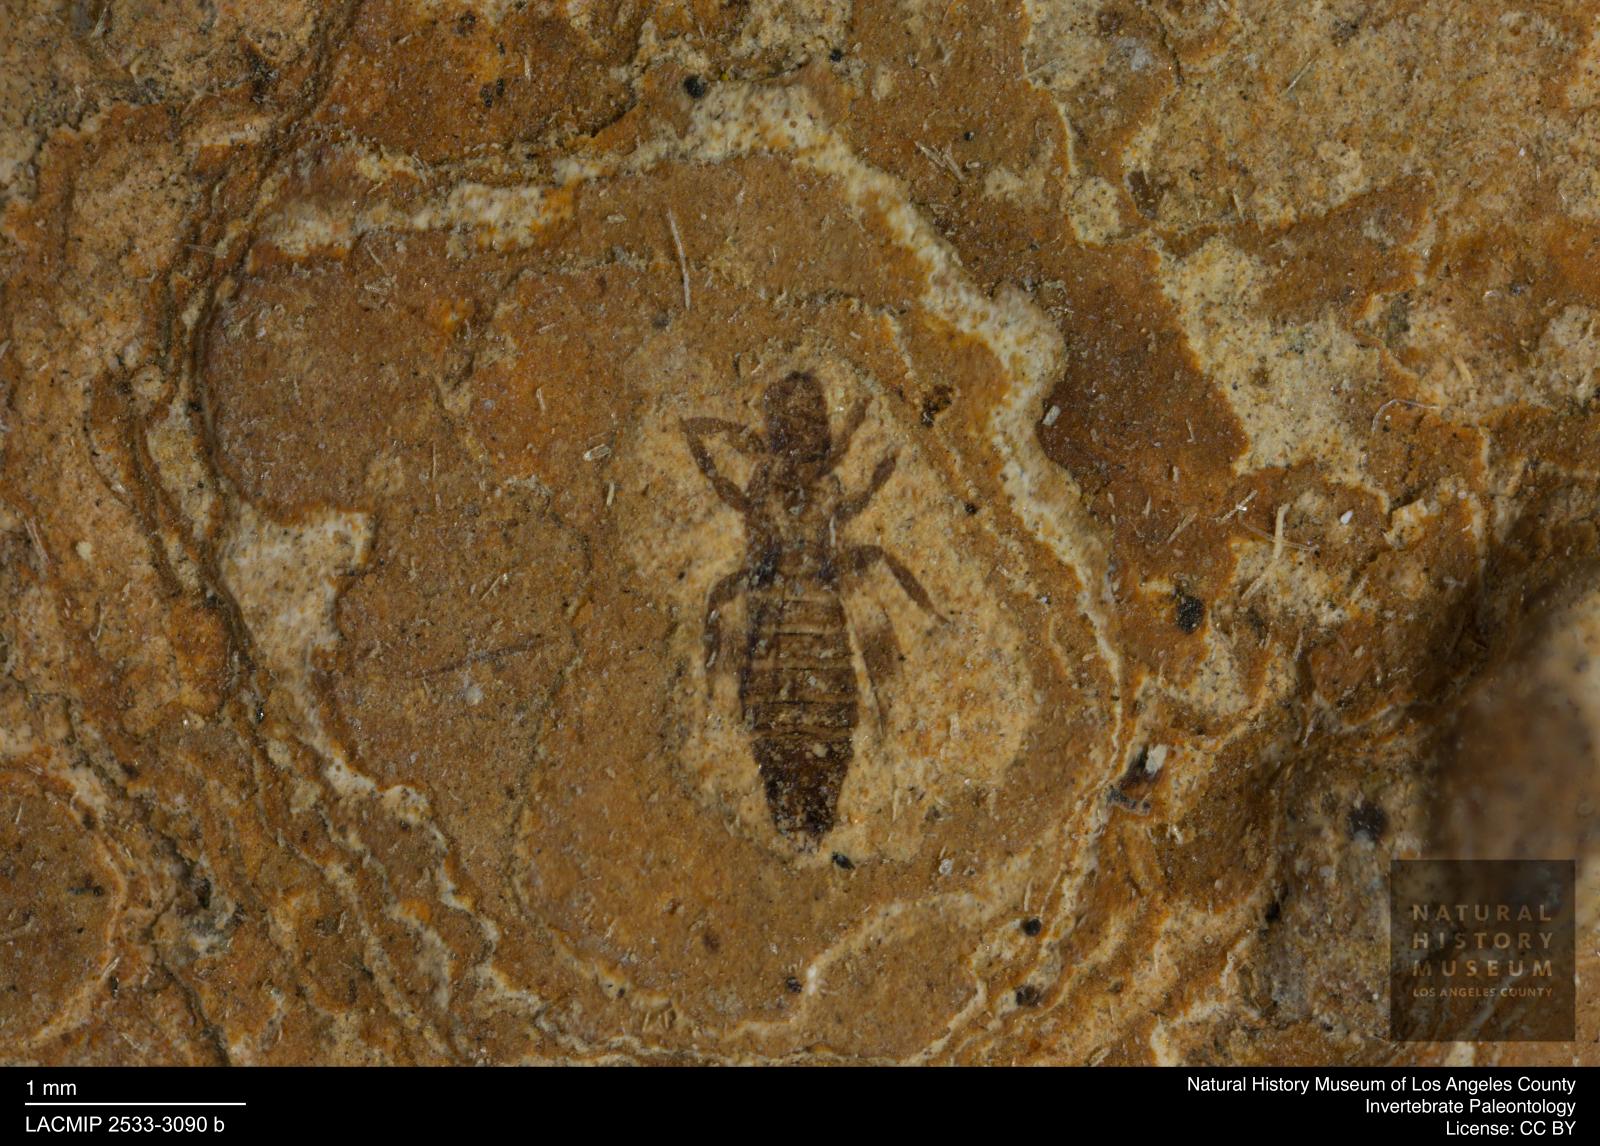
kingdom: Animalia
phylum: Arthropoda
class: Insecta
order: Thysanoptera
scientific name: Thysanoptera
